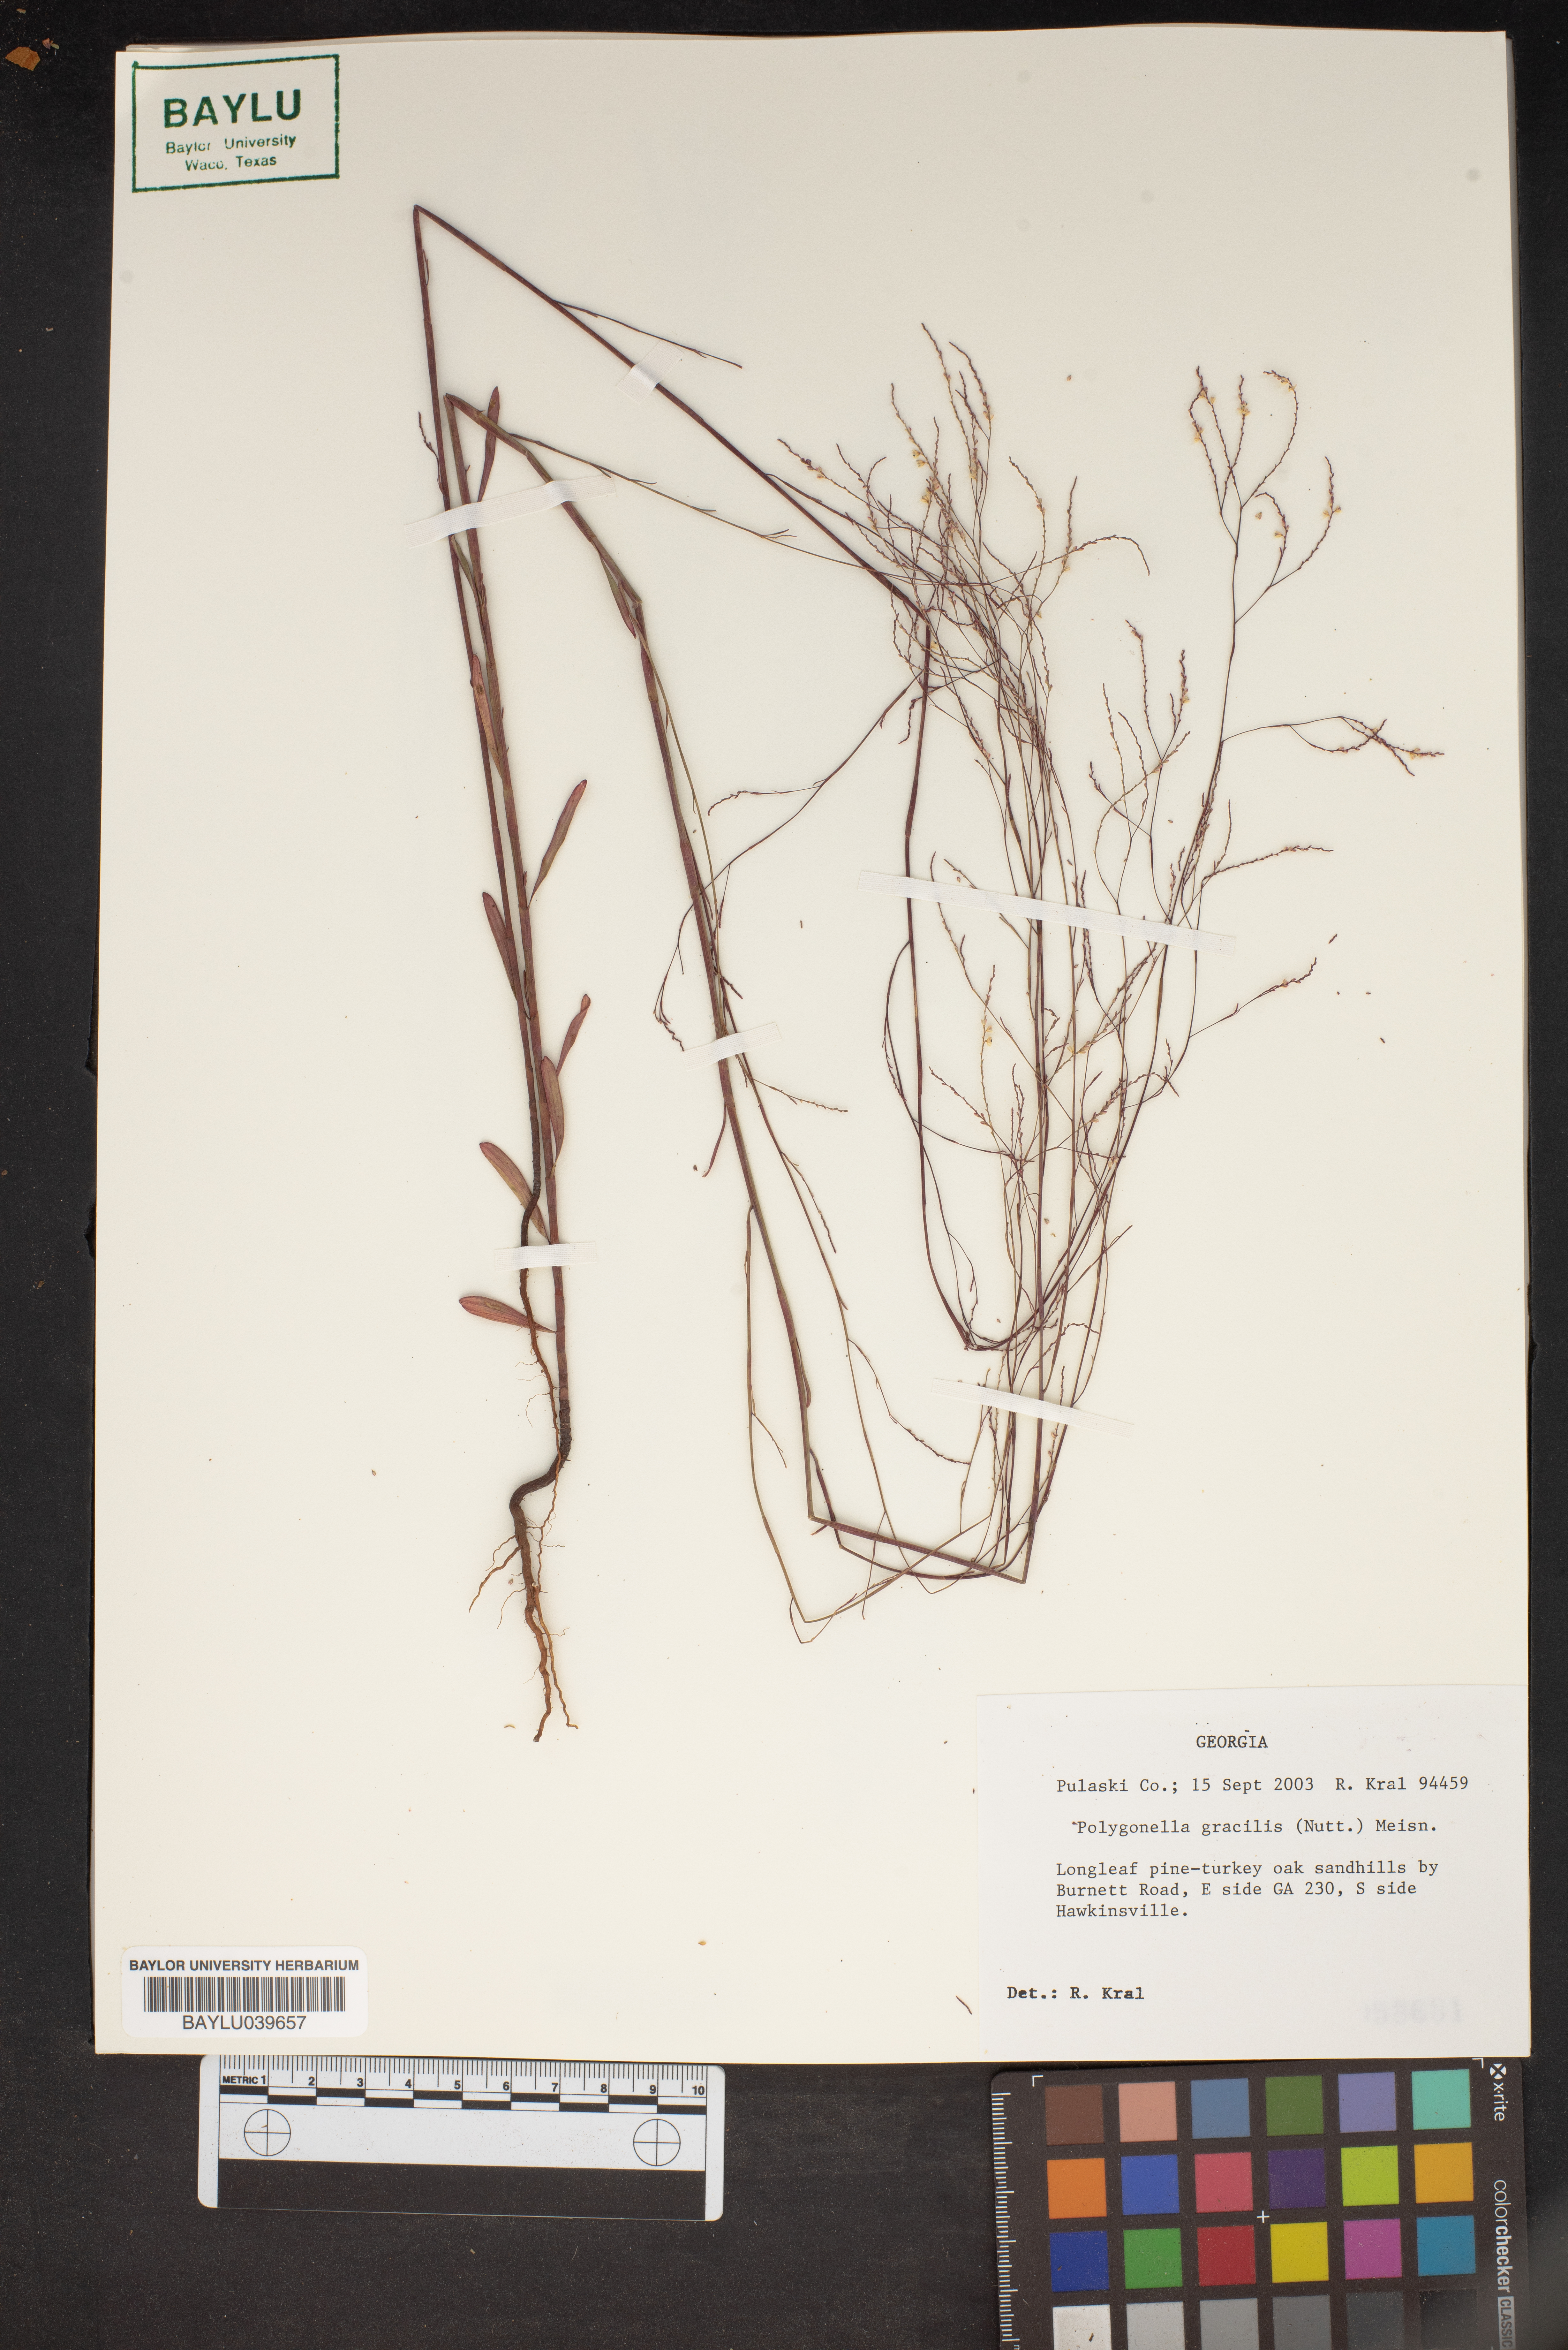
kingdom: Plantae
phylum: Tracheophyta
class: Magnoliopsida
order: Caryophyllales
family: Polygonaceae
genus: Polygonella
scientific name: Polygonella gracilis
